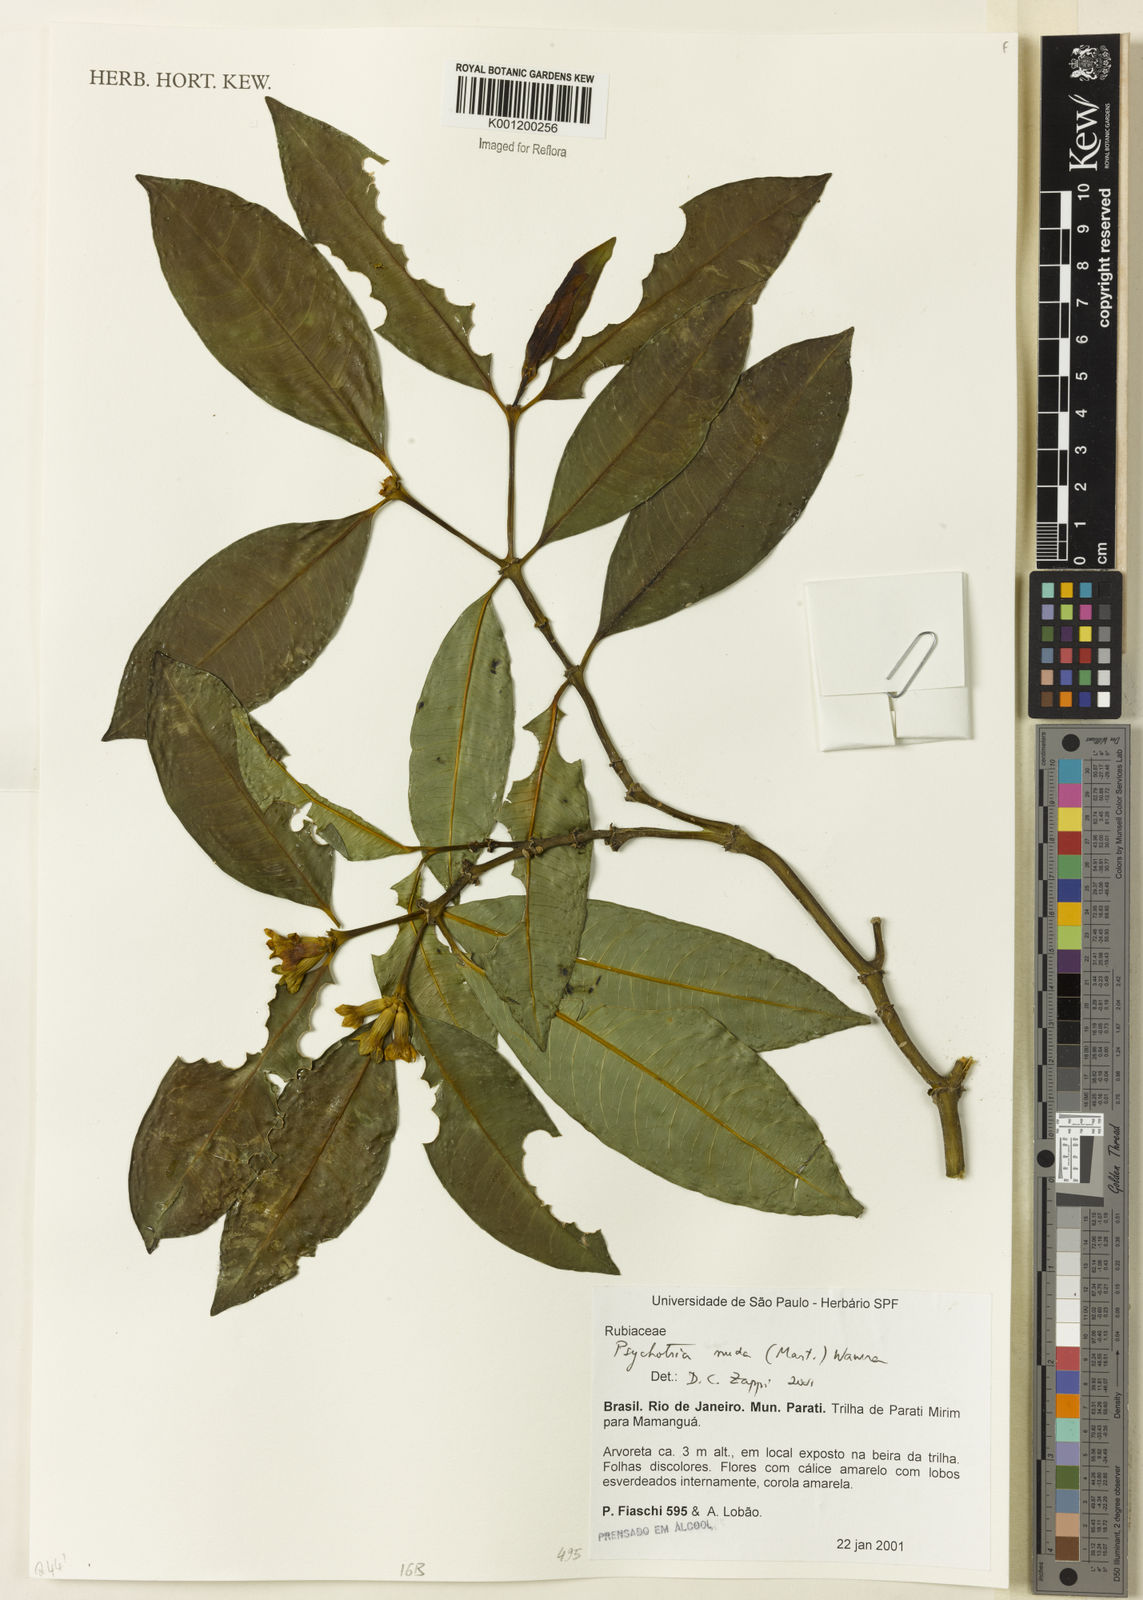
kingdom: Plantae
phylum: Tracheophyta
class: Magnoliopsida
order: Gentianales
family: Rubiaceae
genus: Psychotria
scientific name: Psychotria nuda
